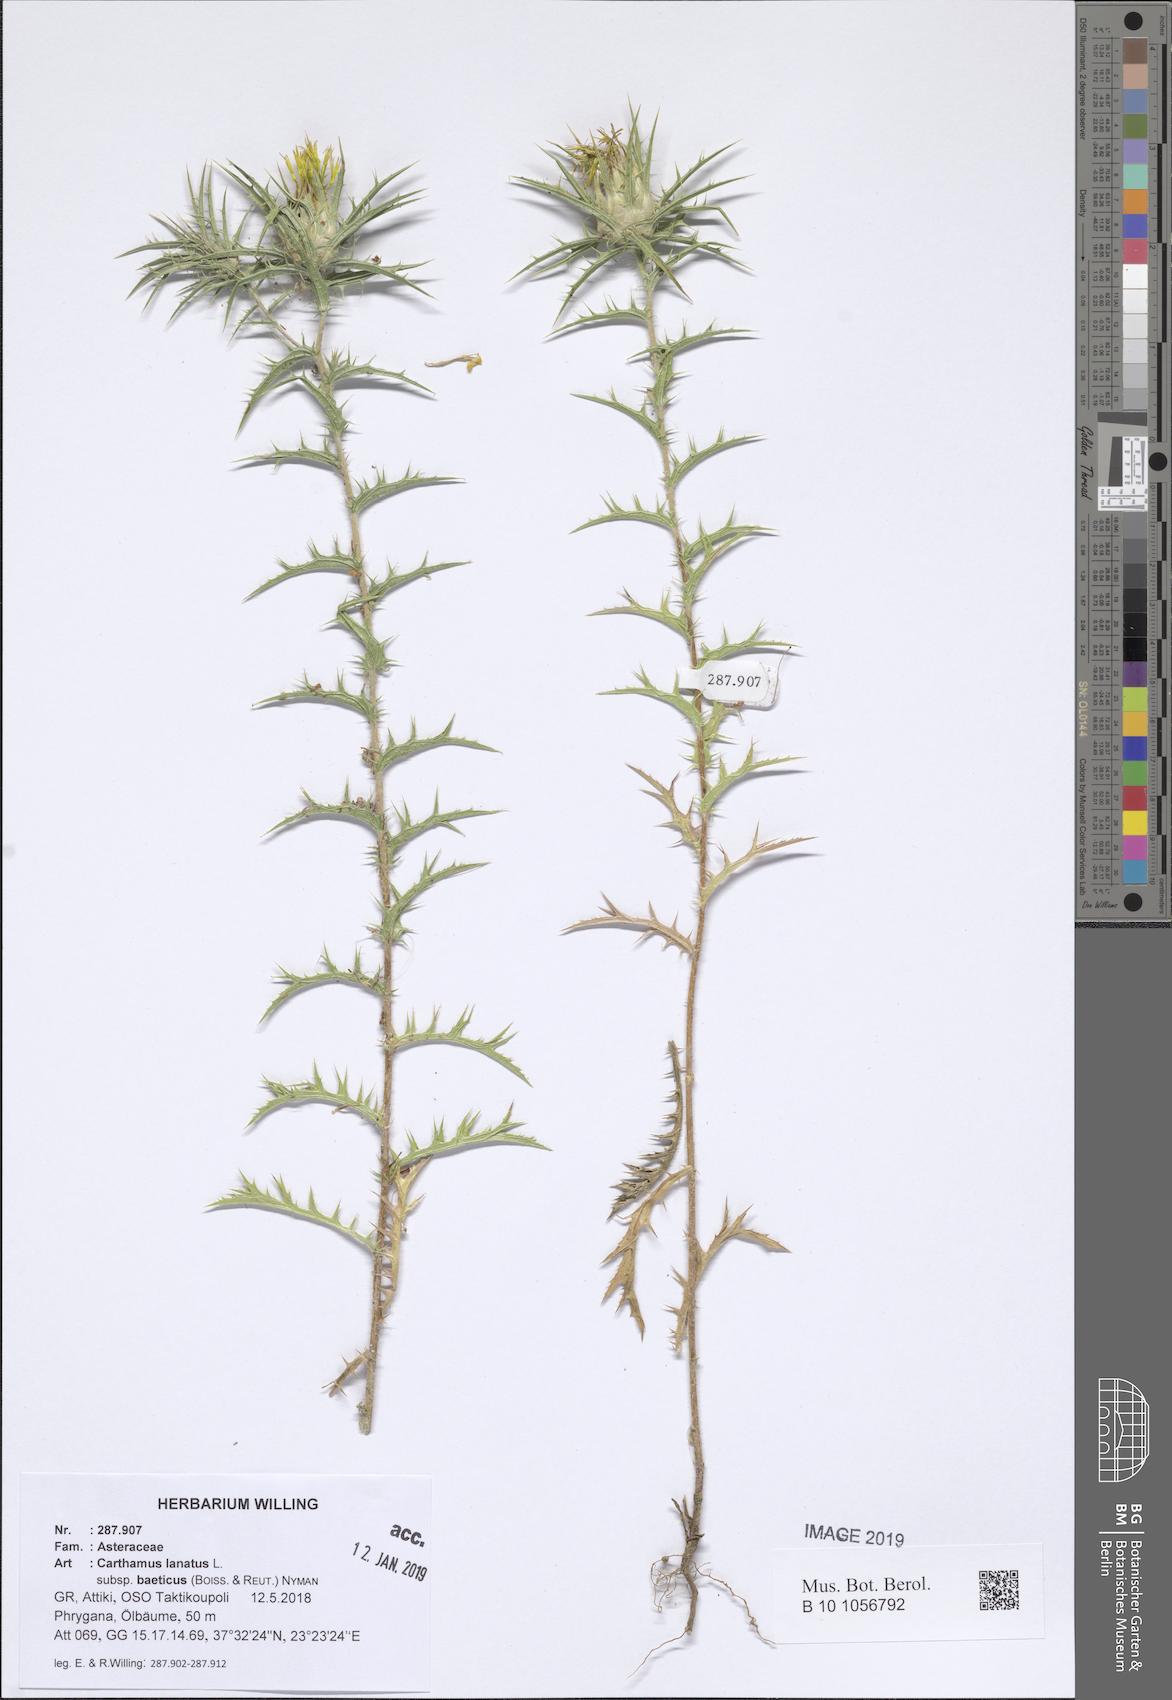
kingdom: Plantae
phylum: Tracheophyta
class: Magnoliopsida
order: Asterales
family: Asteraceae
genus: Carthamus
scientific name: Carthamus creticus
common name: Smooth distaff thistle
